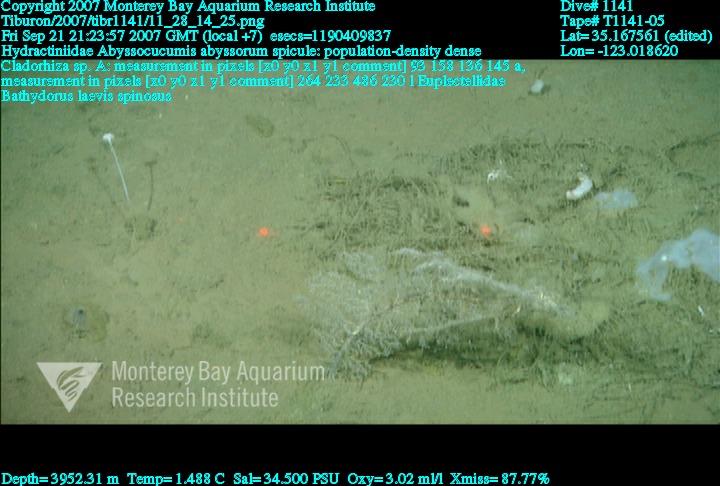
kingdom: Animalia
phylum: Porifera
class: Hexactinellida
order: Lyssacinosida
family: Euplectellidae
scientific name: Euplectellidae
